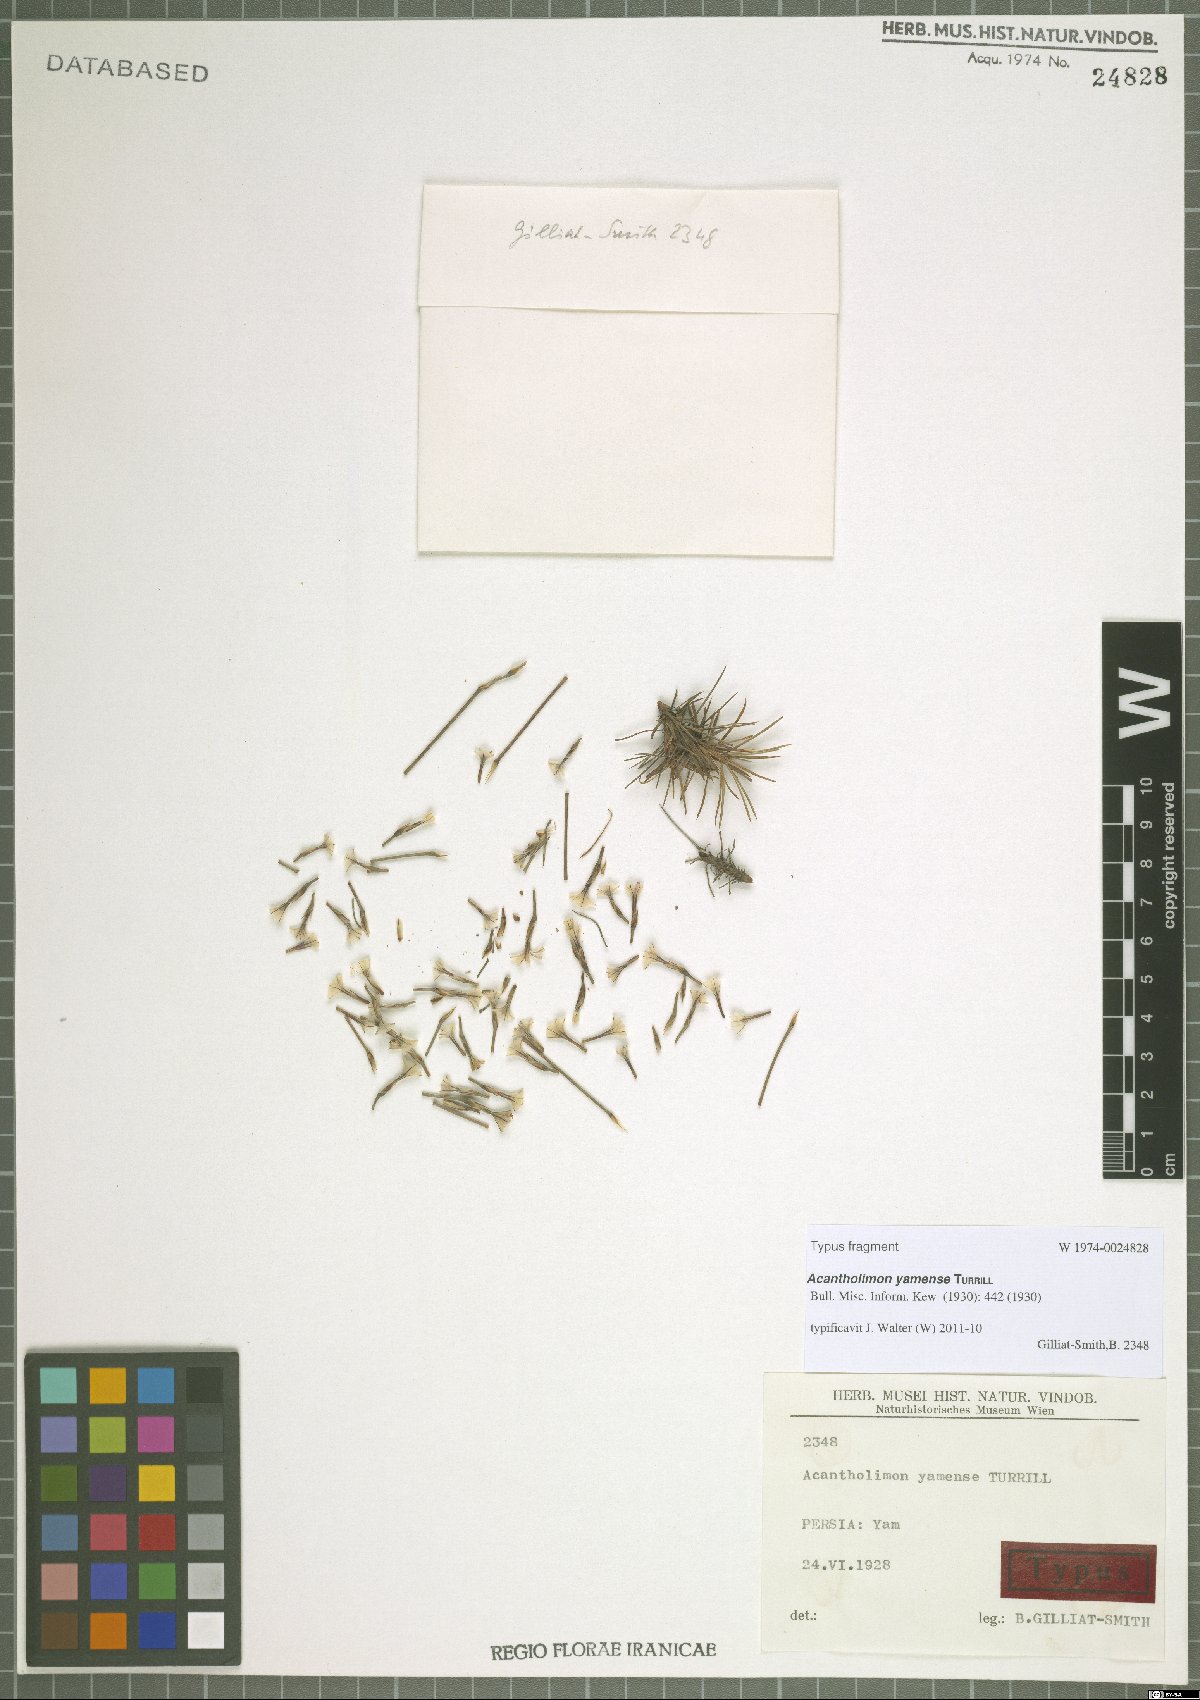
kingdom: Plantae
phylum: Tracheophyta
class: Magnoliopsida
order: Caryophyllales
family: Plumbaginaceae
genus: Acantholimon
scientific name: Acantholimon yamense
